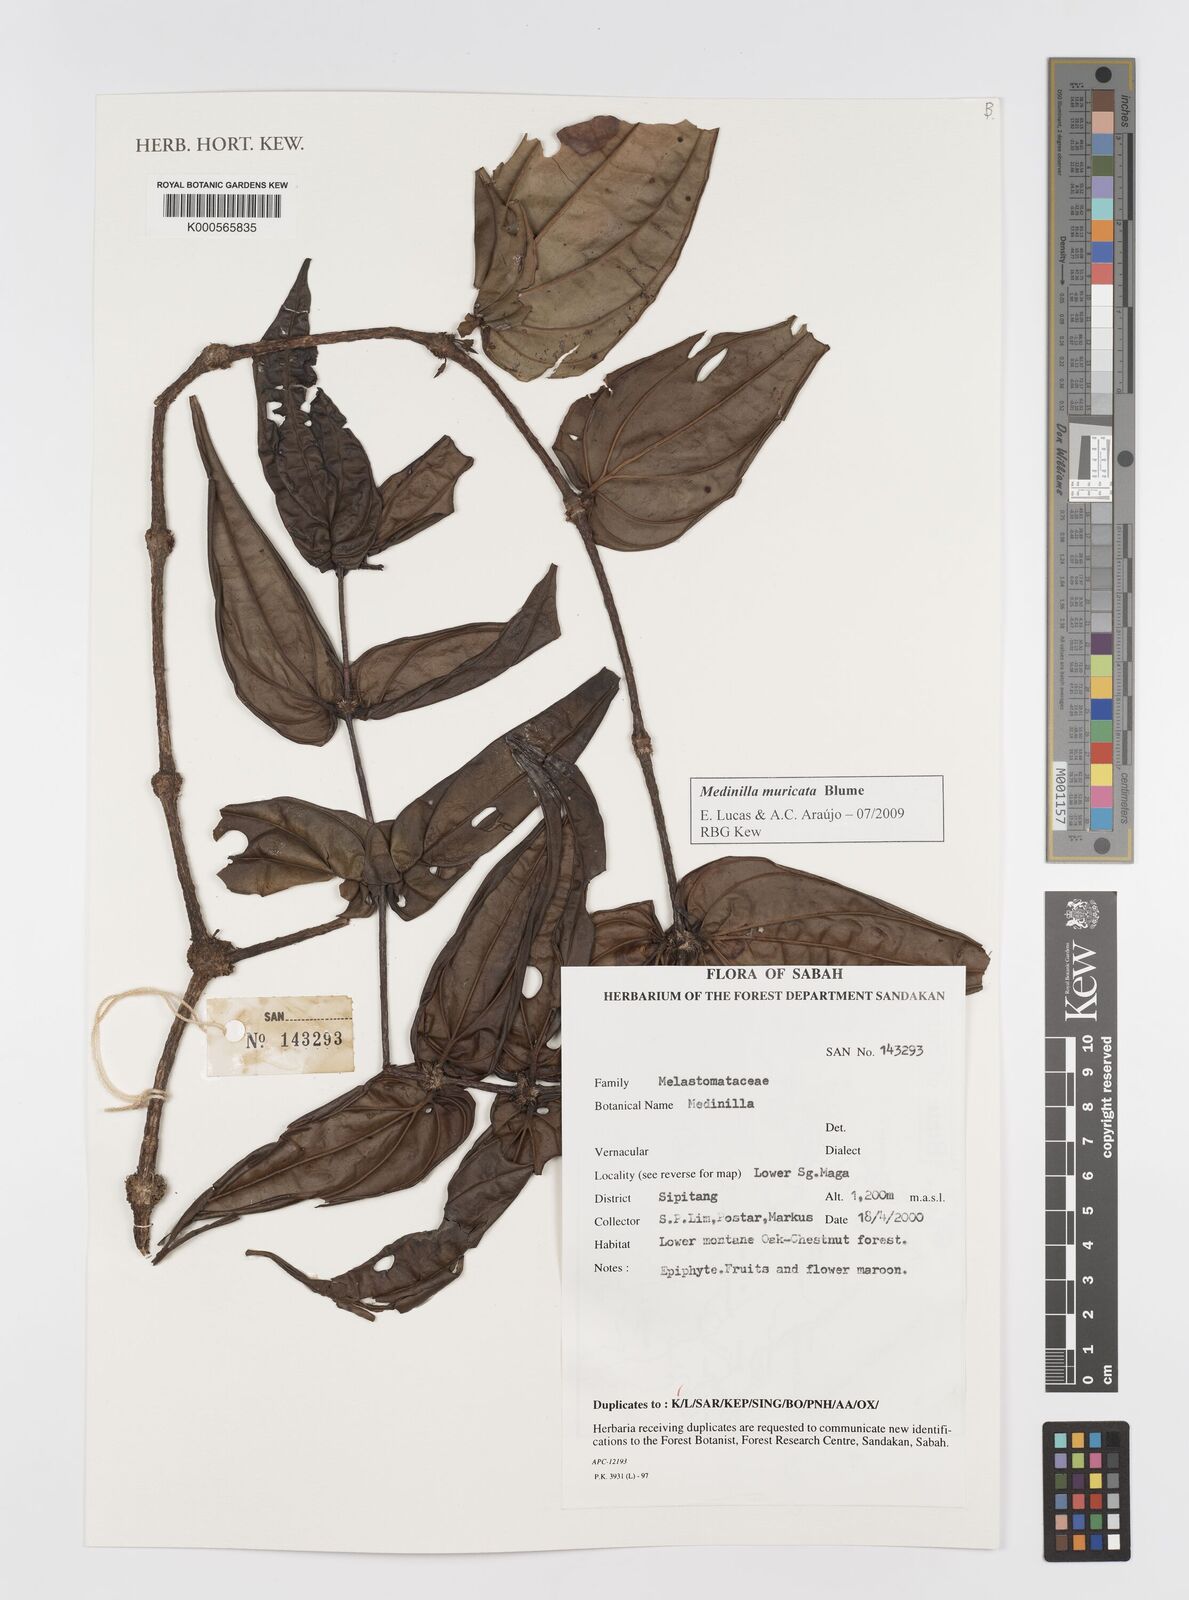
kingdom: Plantae
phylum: Tracheophyta
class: Magnoliopsida
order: Myrtales
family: Melastomataceae
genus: Medinilla
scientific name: Medinilla muricata
